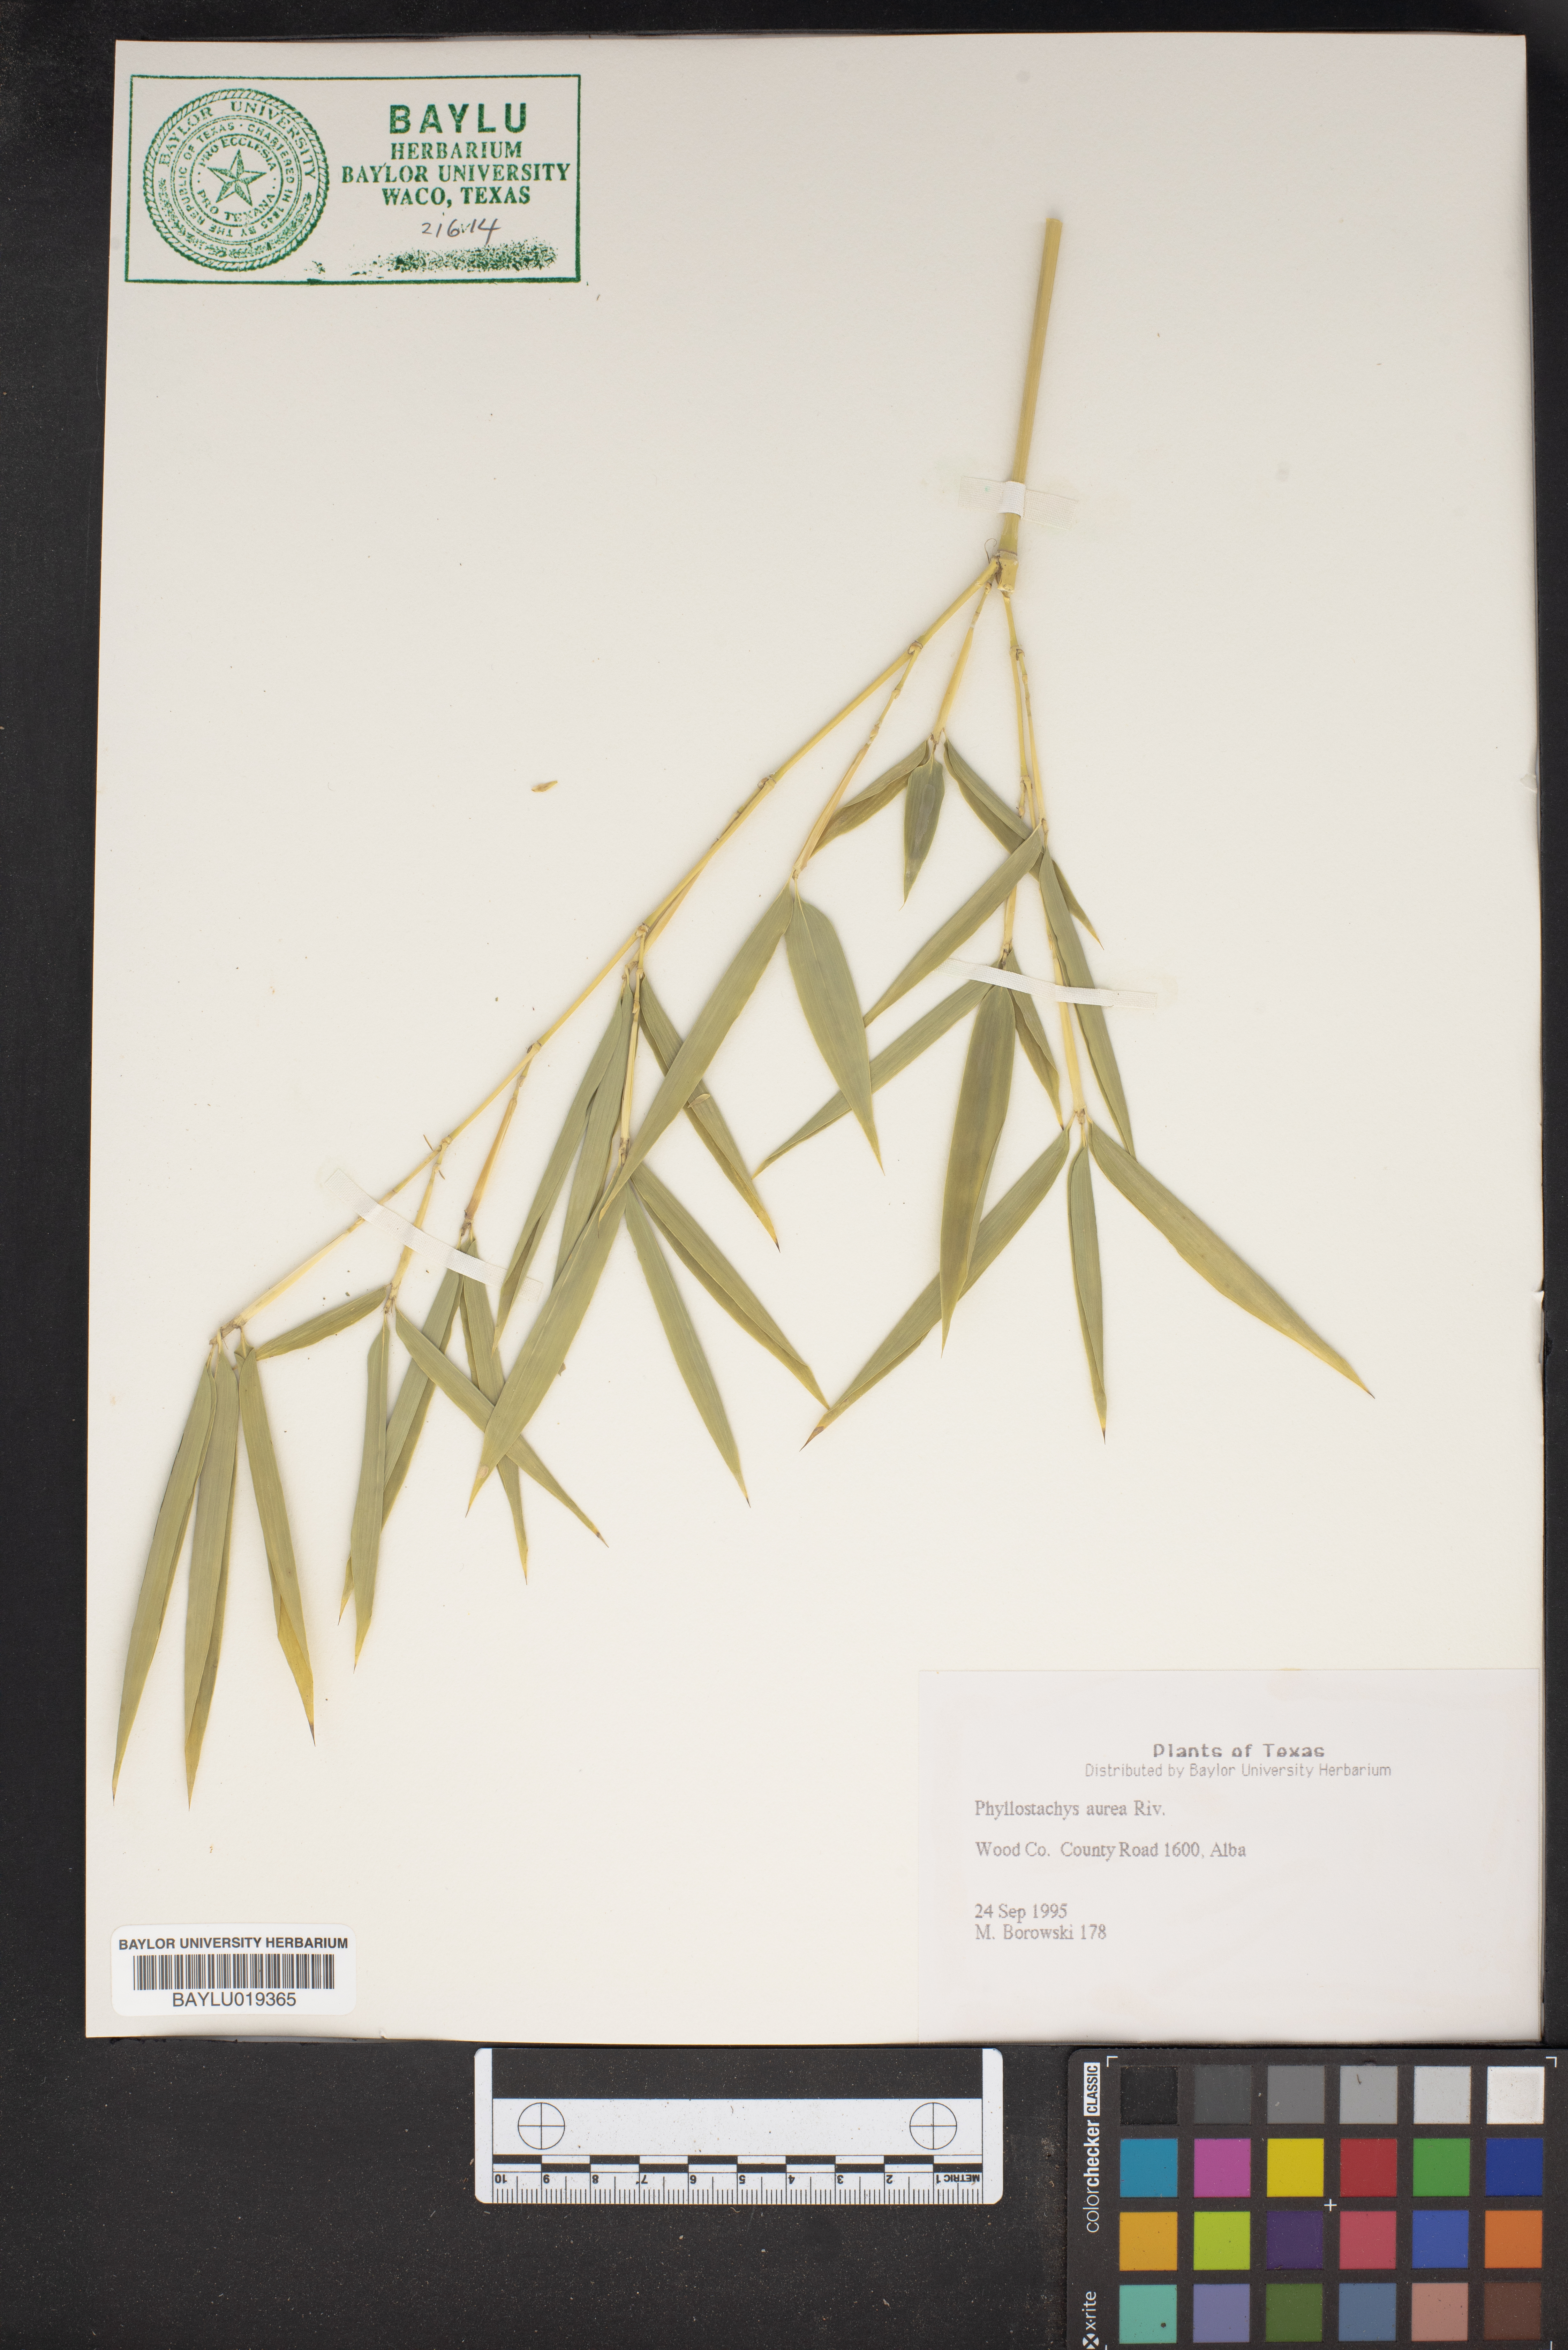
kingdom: Plantae
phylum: Tracheophyta
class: Liliopsida
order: Poales
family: Poaceae
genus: Phyllostachys
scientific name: Phyllostachys aurea
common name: Golden bamboo
